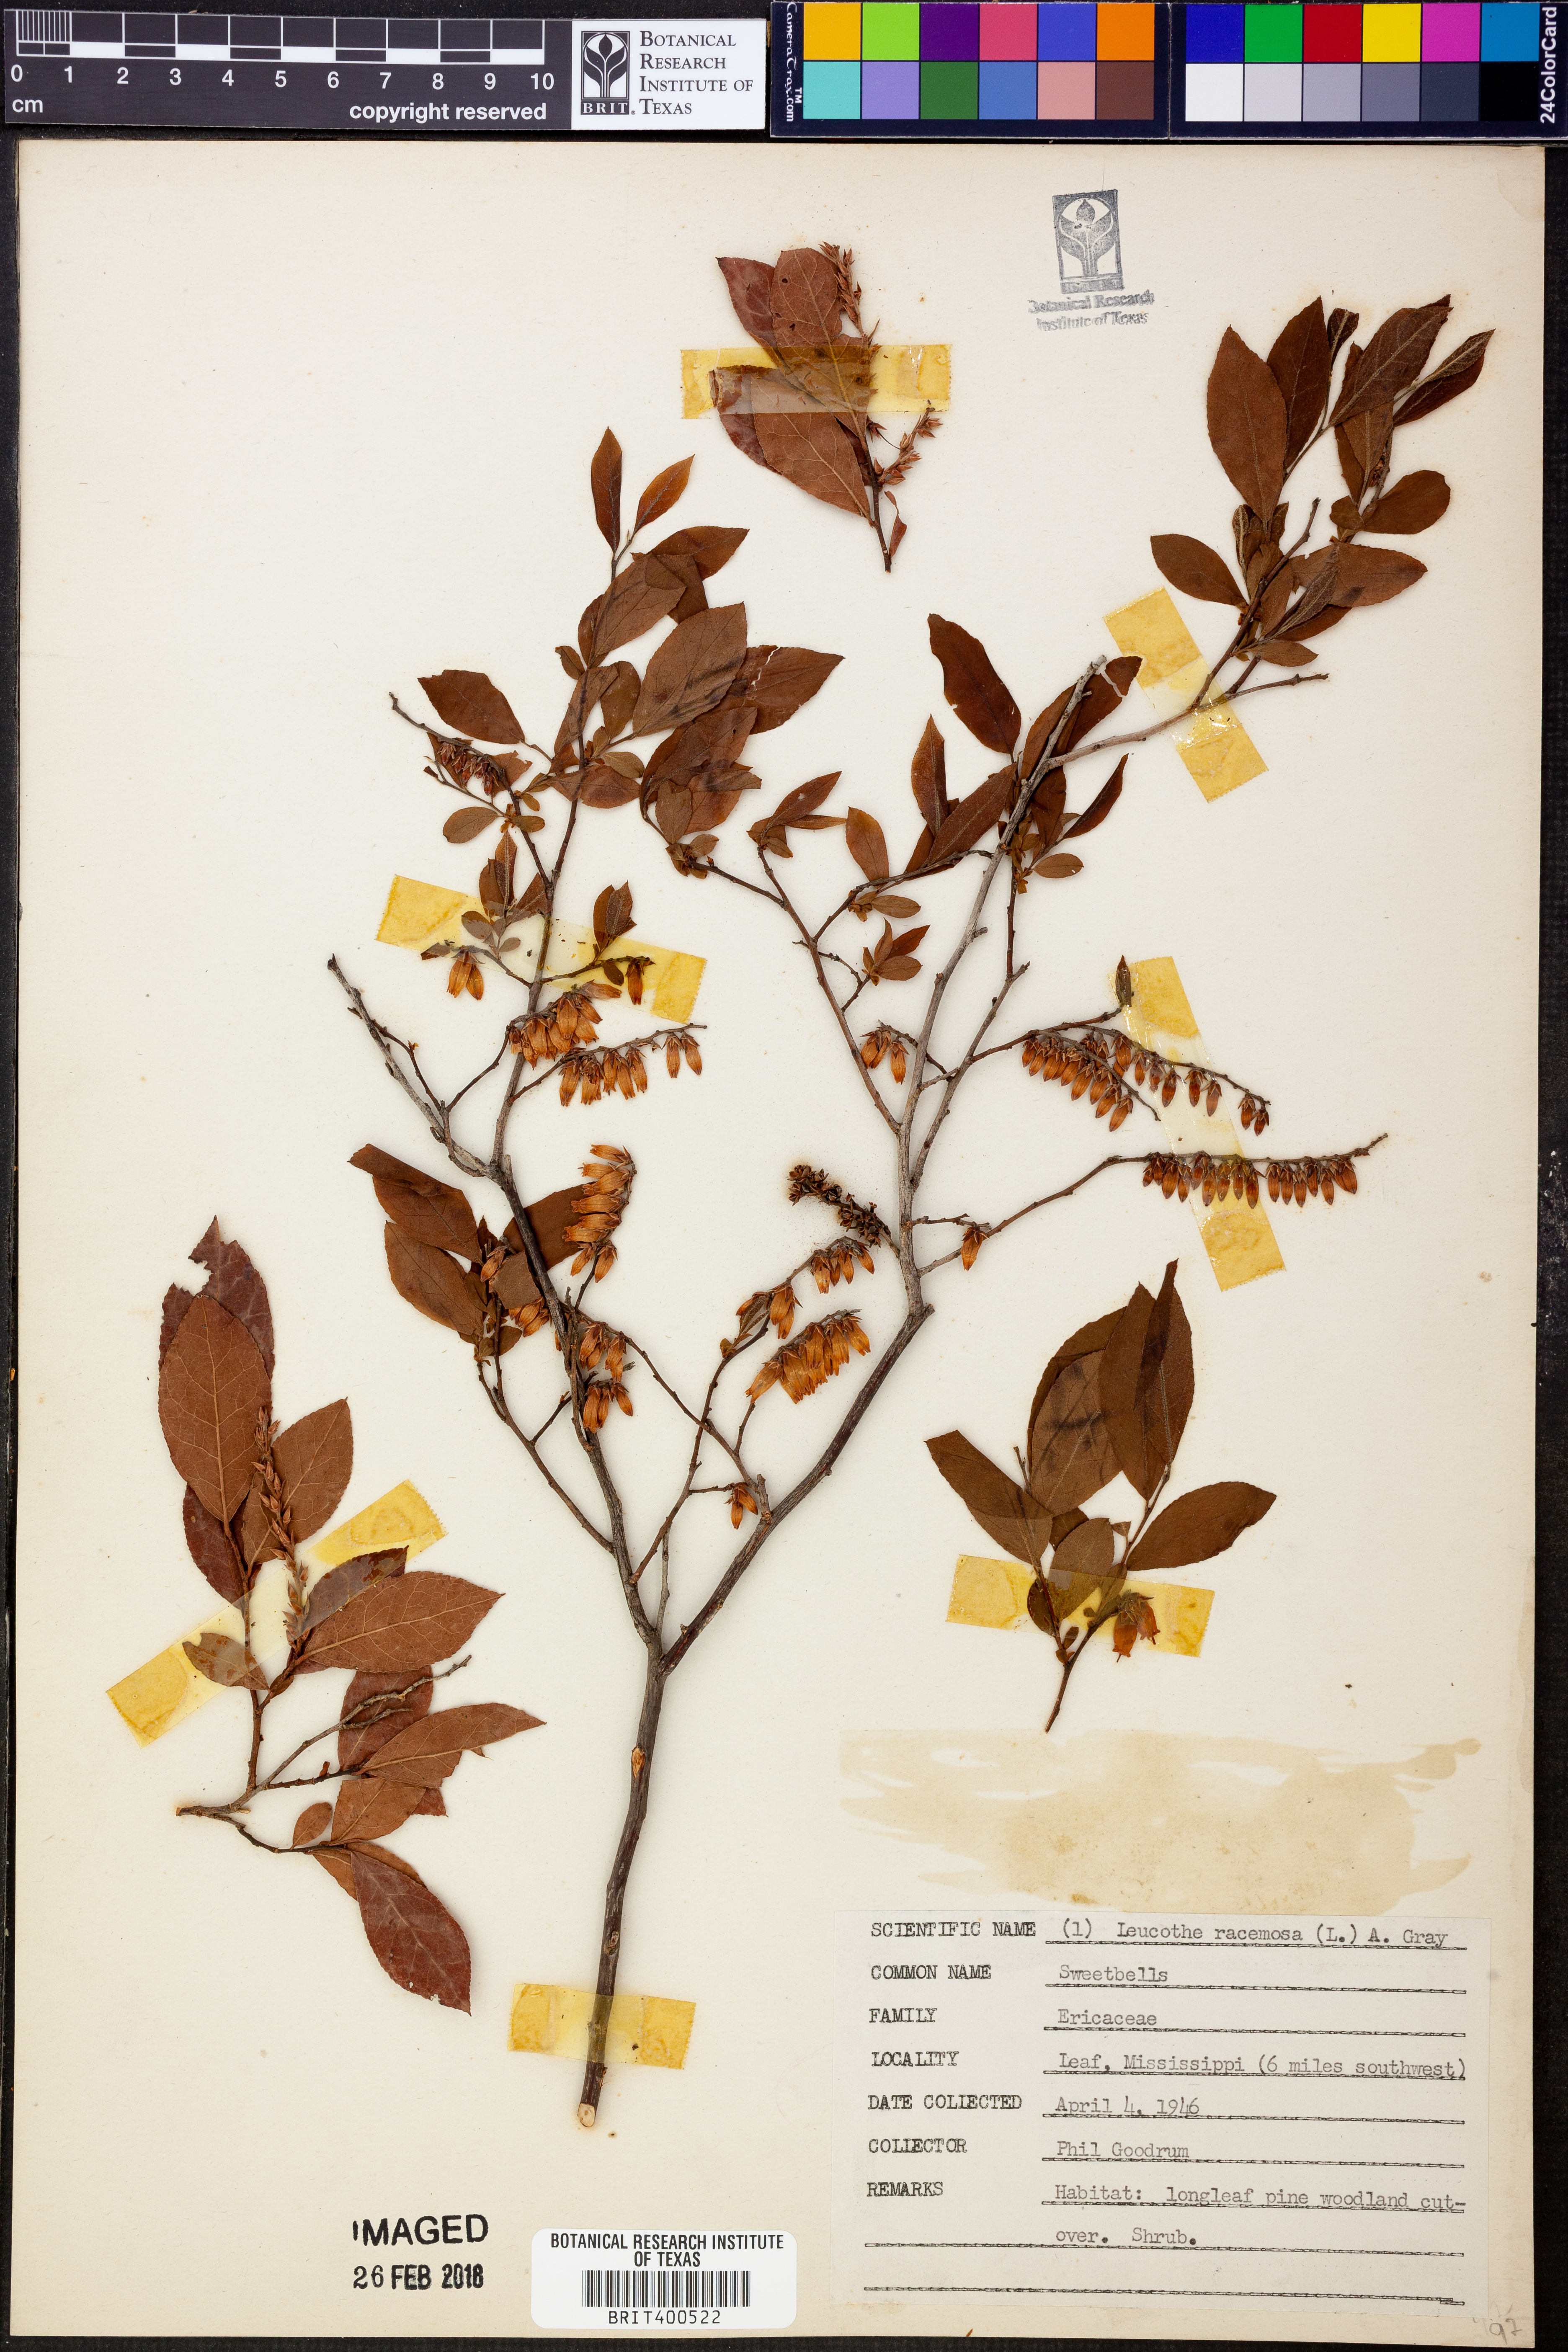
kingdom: Plantae
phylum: Tracheophyta
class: Magnoliopsida
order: Ericales
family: Ericaceae
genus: Eubotrys
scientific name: Eubotrys racemosa
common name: Fetterbush
